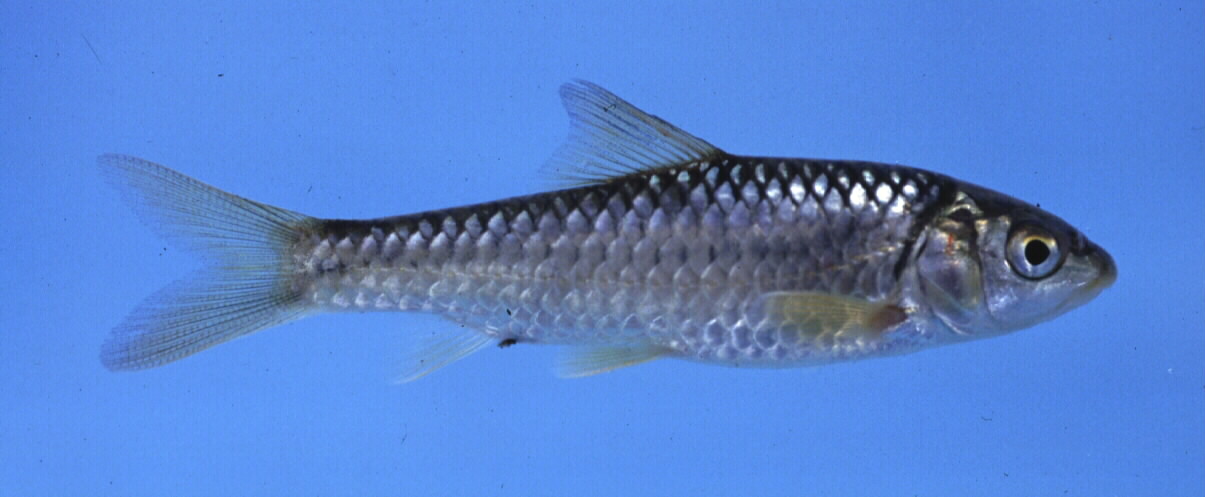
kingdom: Animalia
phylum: Chordata
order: Cypriniformes
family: Cyprinidae
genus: Labeobarbus
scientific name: Labeobarbus marequensis
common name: Largescale yellowfish
